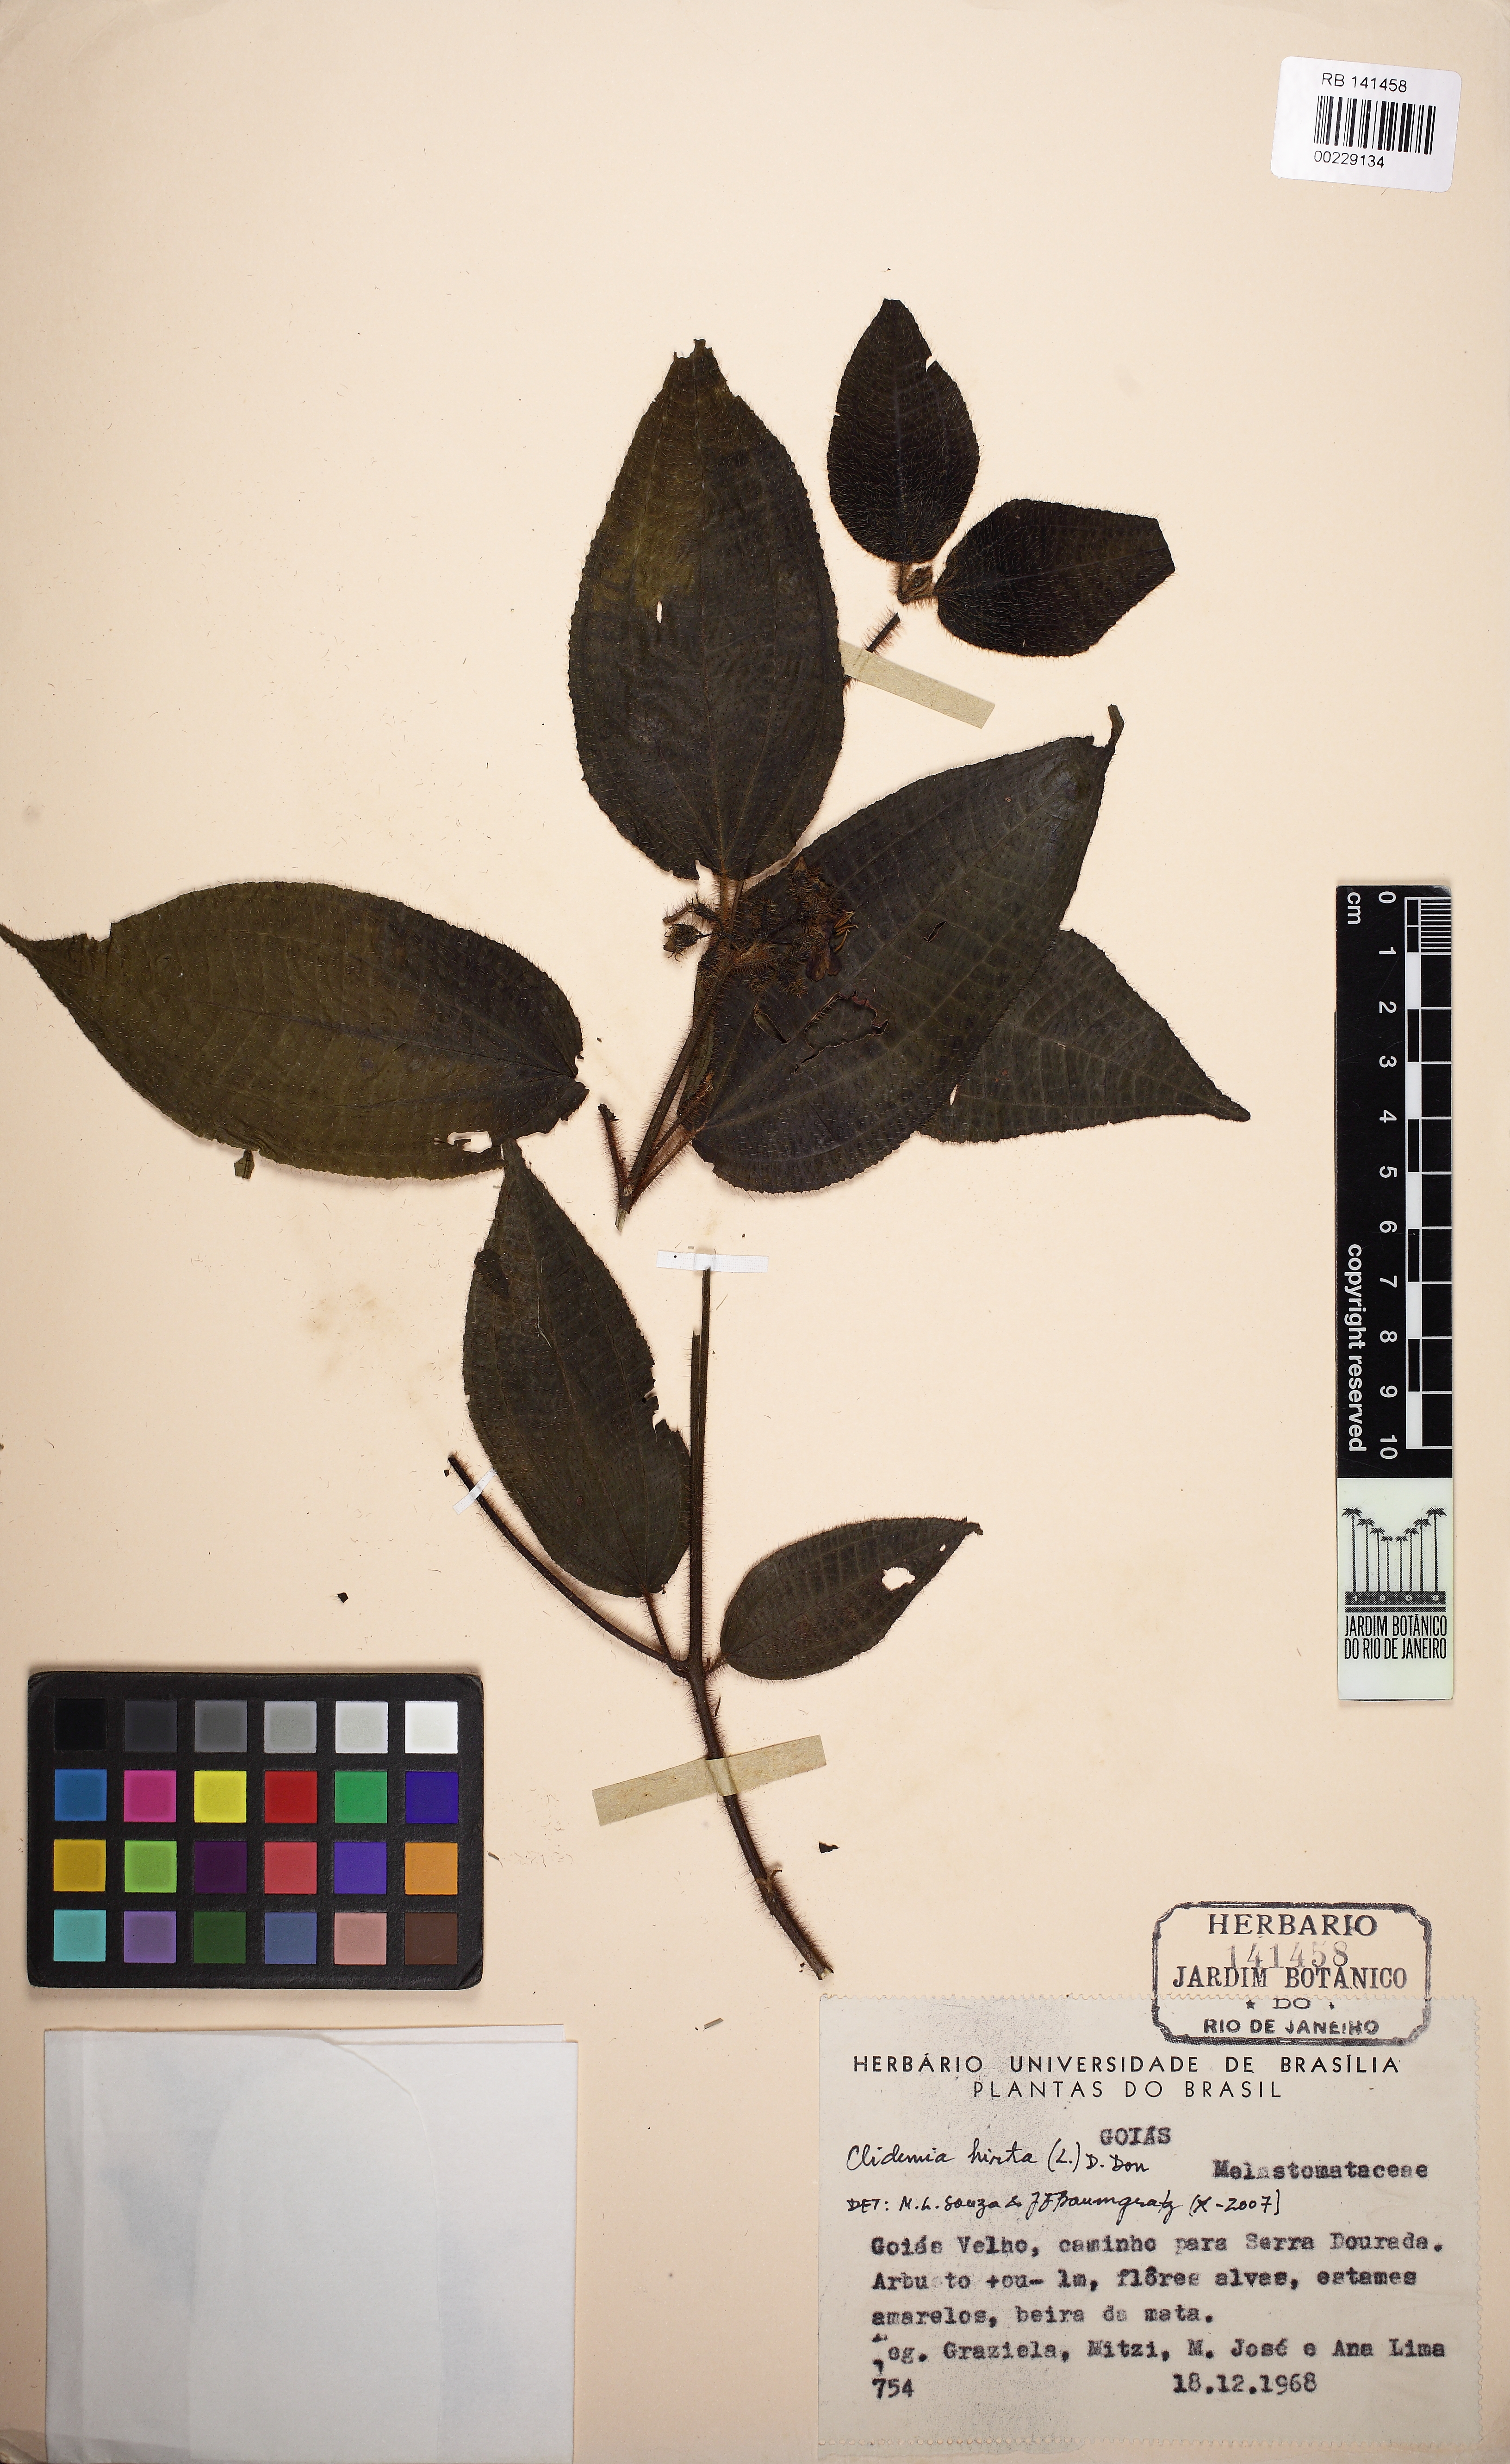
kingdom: Plantae
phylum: Tracheophyta
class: Magnoliopsida
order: Myrtales
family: Melastomataceae
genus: Miconia
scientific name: Miconia crenata
